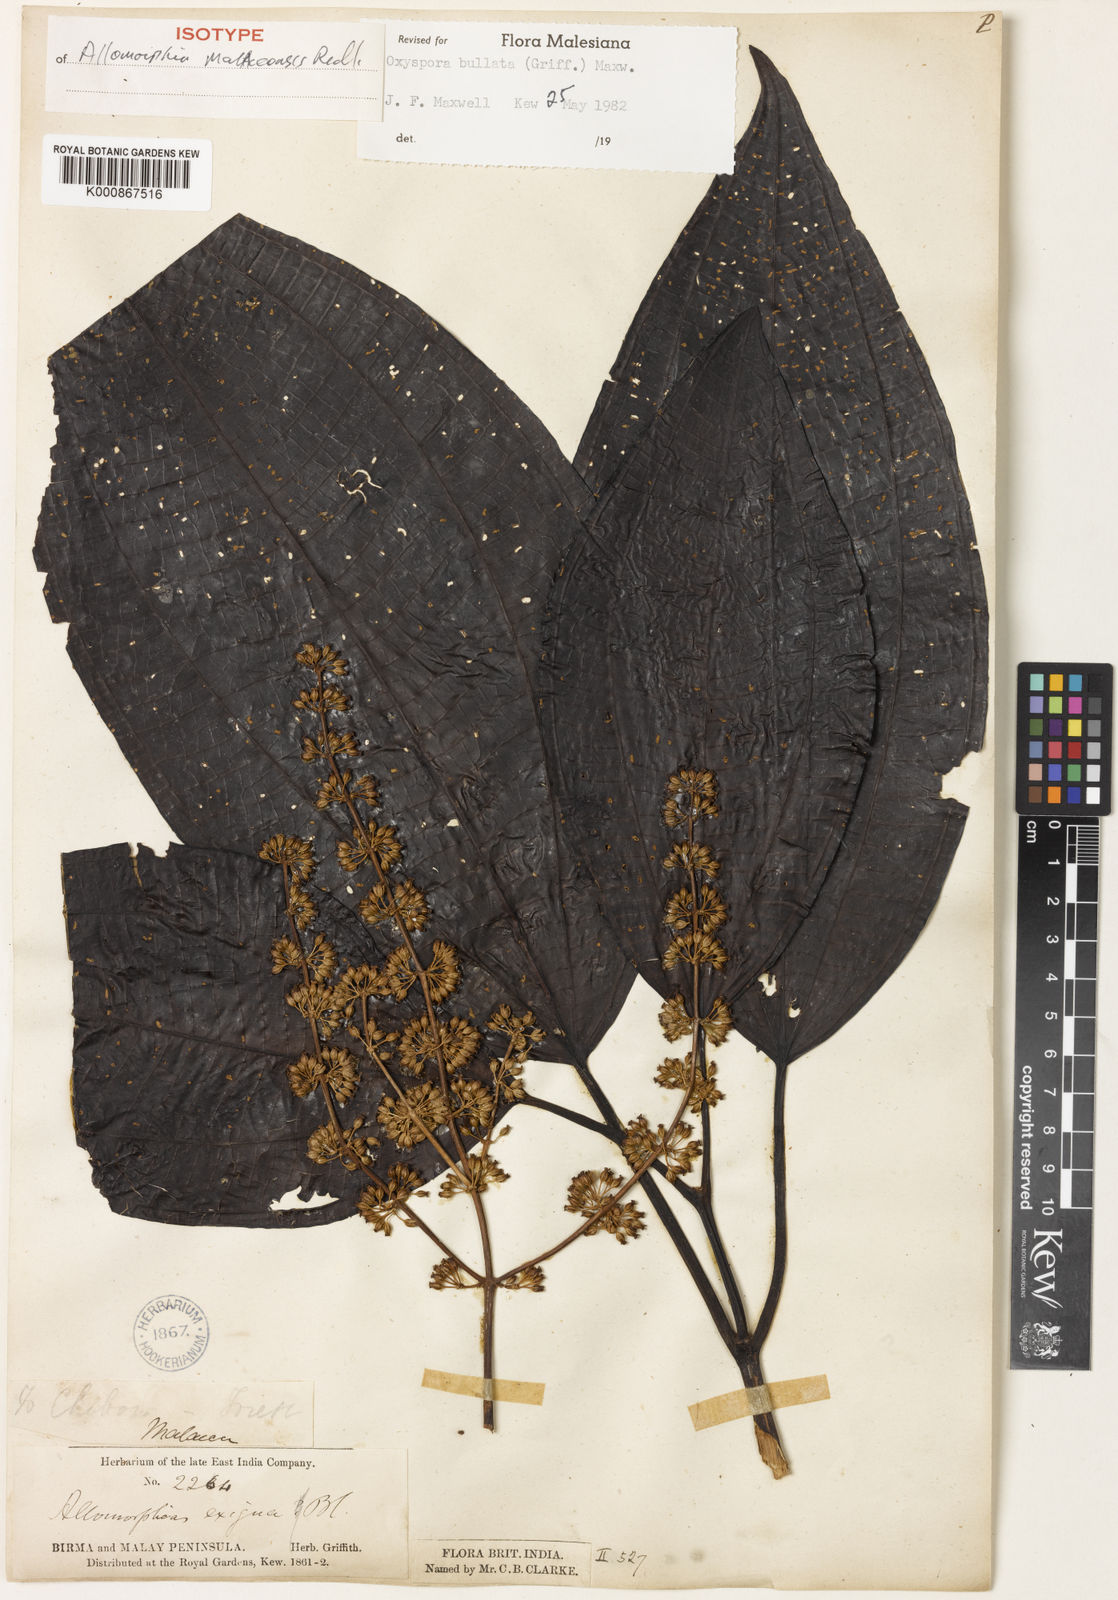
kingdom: Plantae
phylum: Tracheophyta
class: Magnoliopsida
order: Myrtales
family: Melastomataceae
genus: Allomorphia
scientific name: Allomorphia bullata
